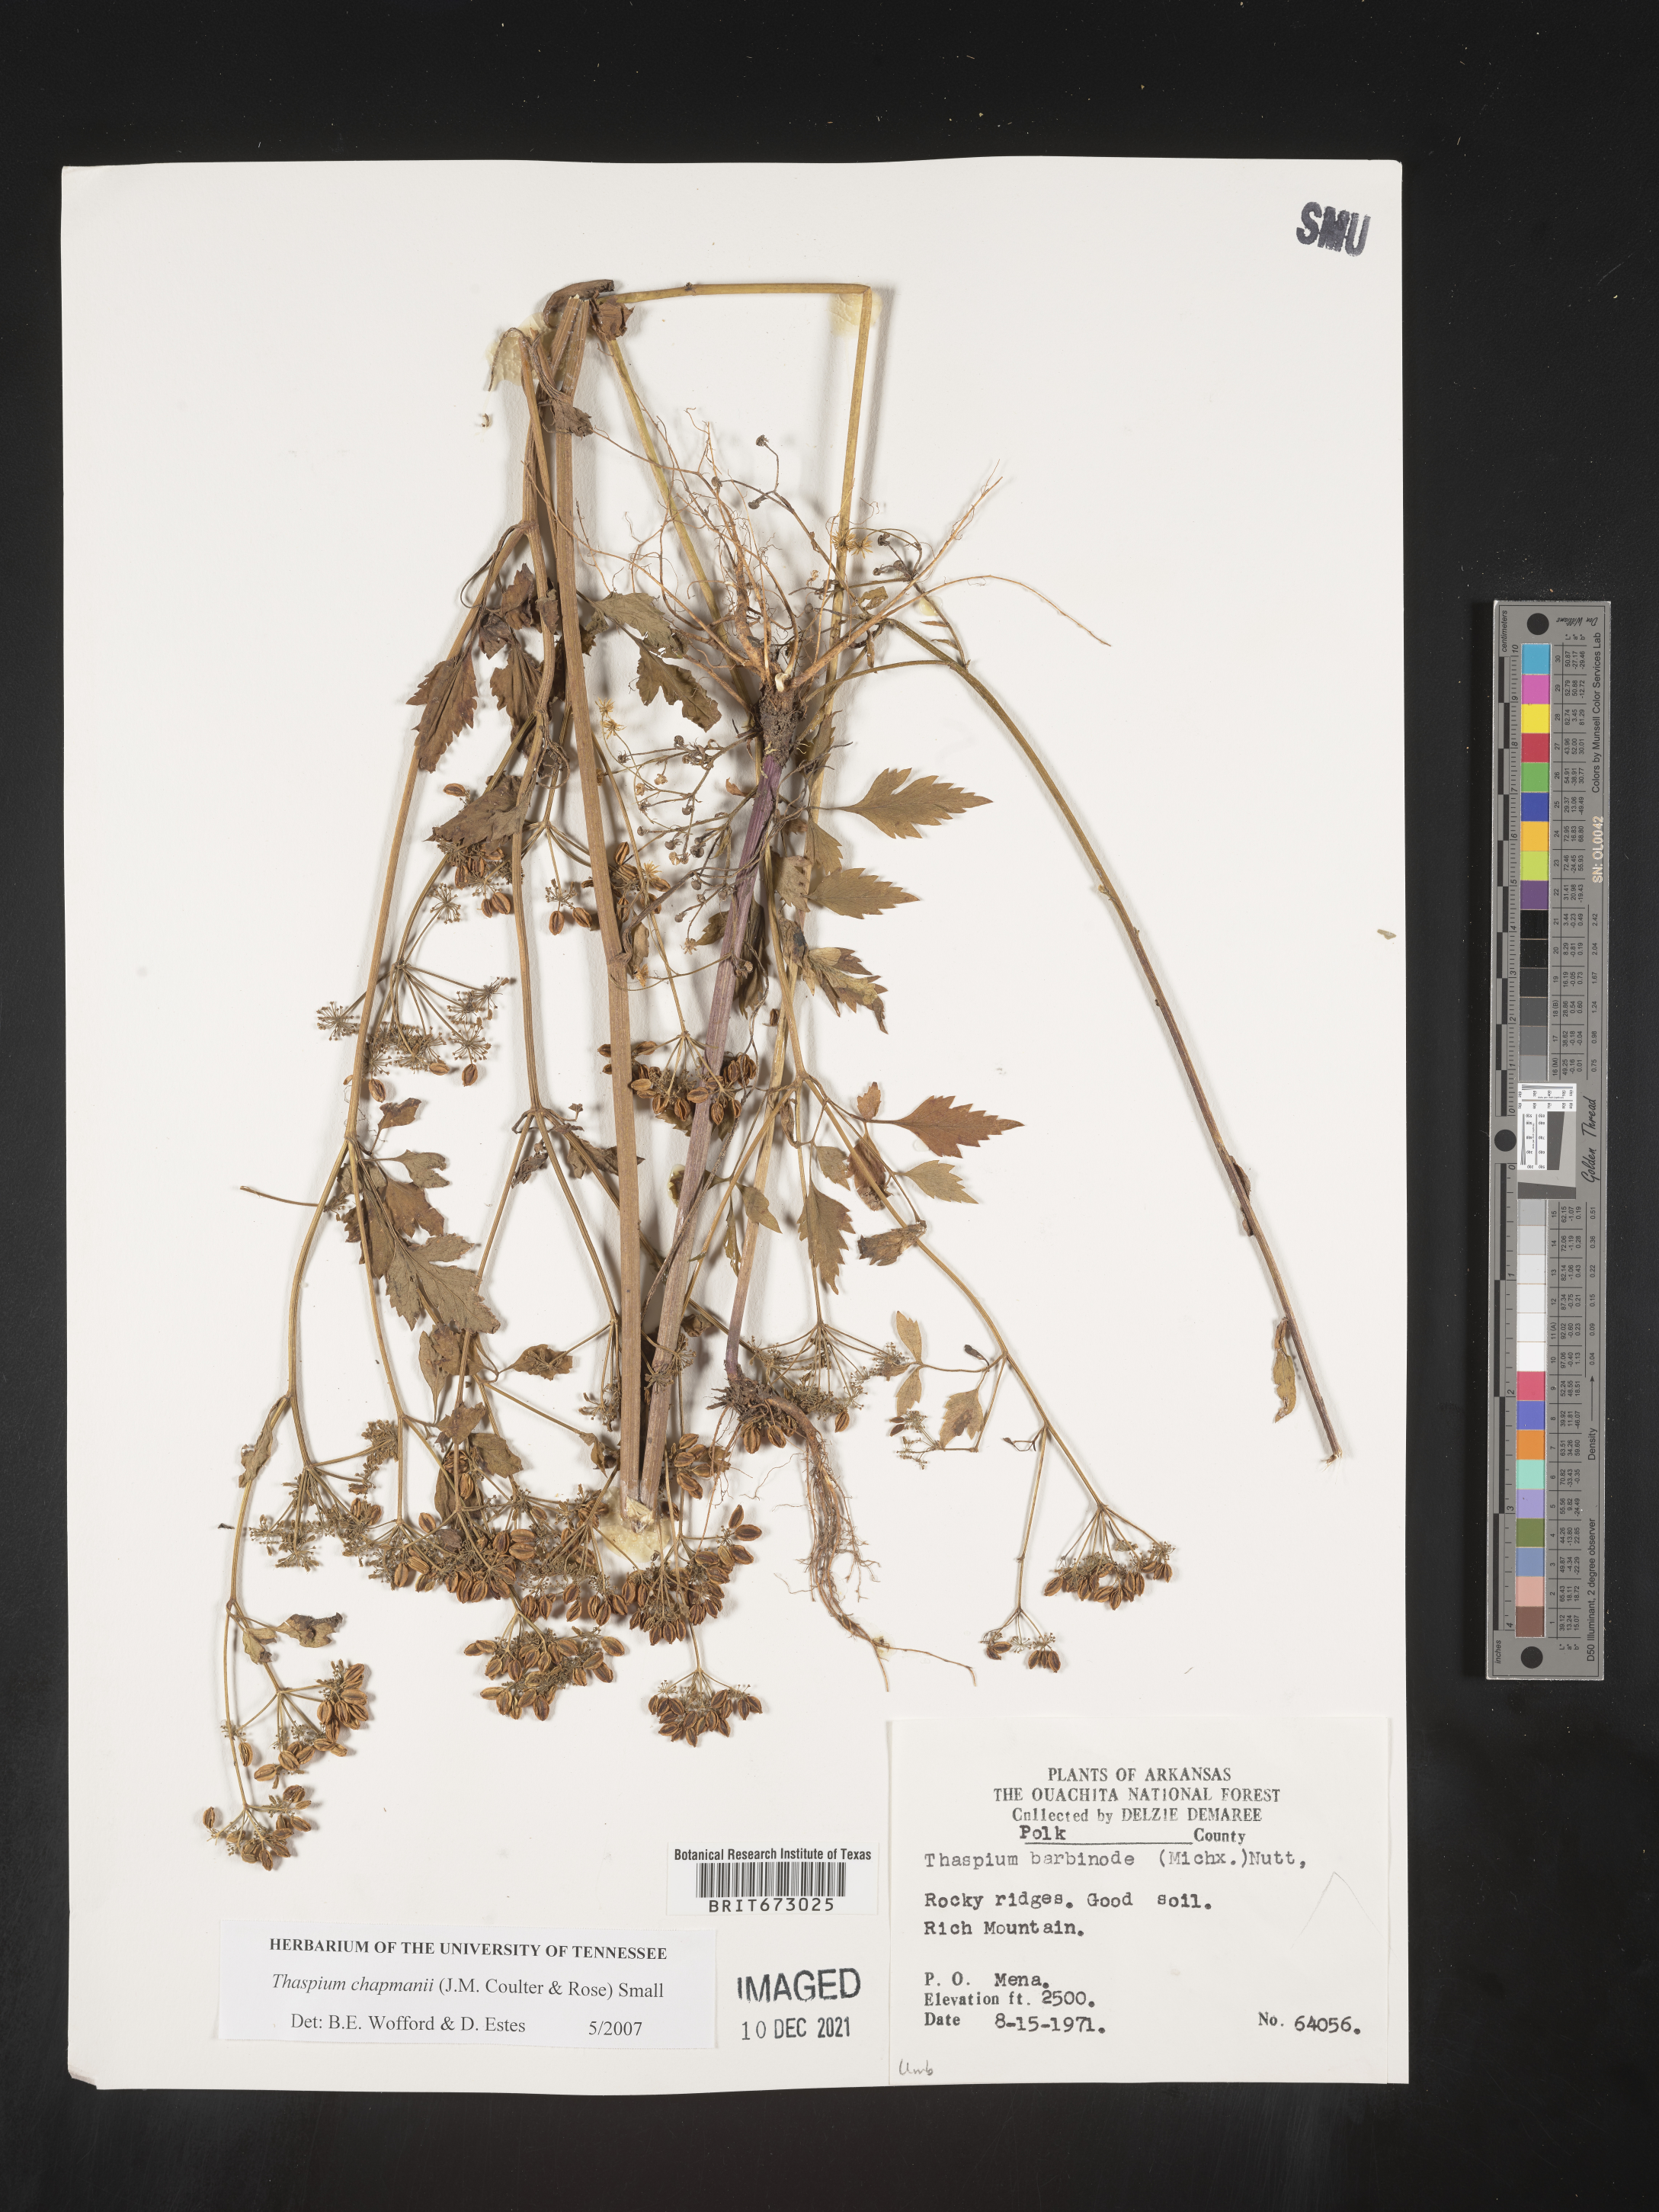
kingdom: Plantae
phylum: Tracheophyta
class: Magnoliopsida
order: Apiales
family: Apiaceae
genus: Thaspium
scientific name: Thaspium barbinode
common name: Bearded meadow-parsnip
